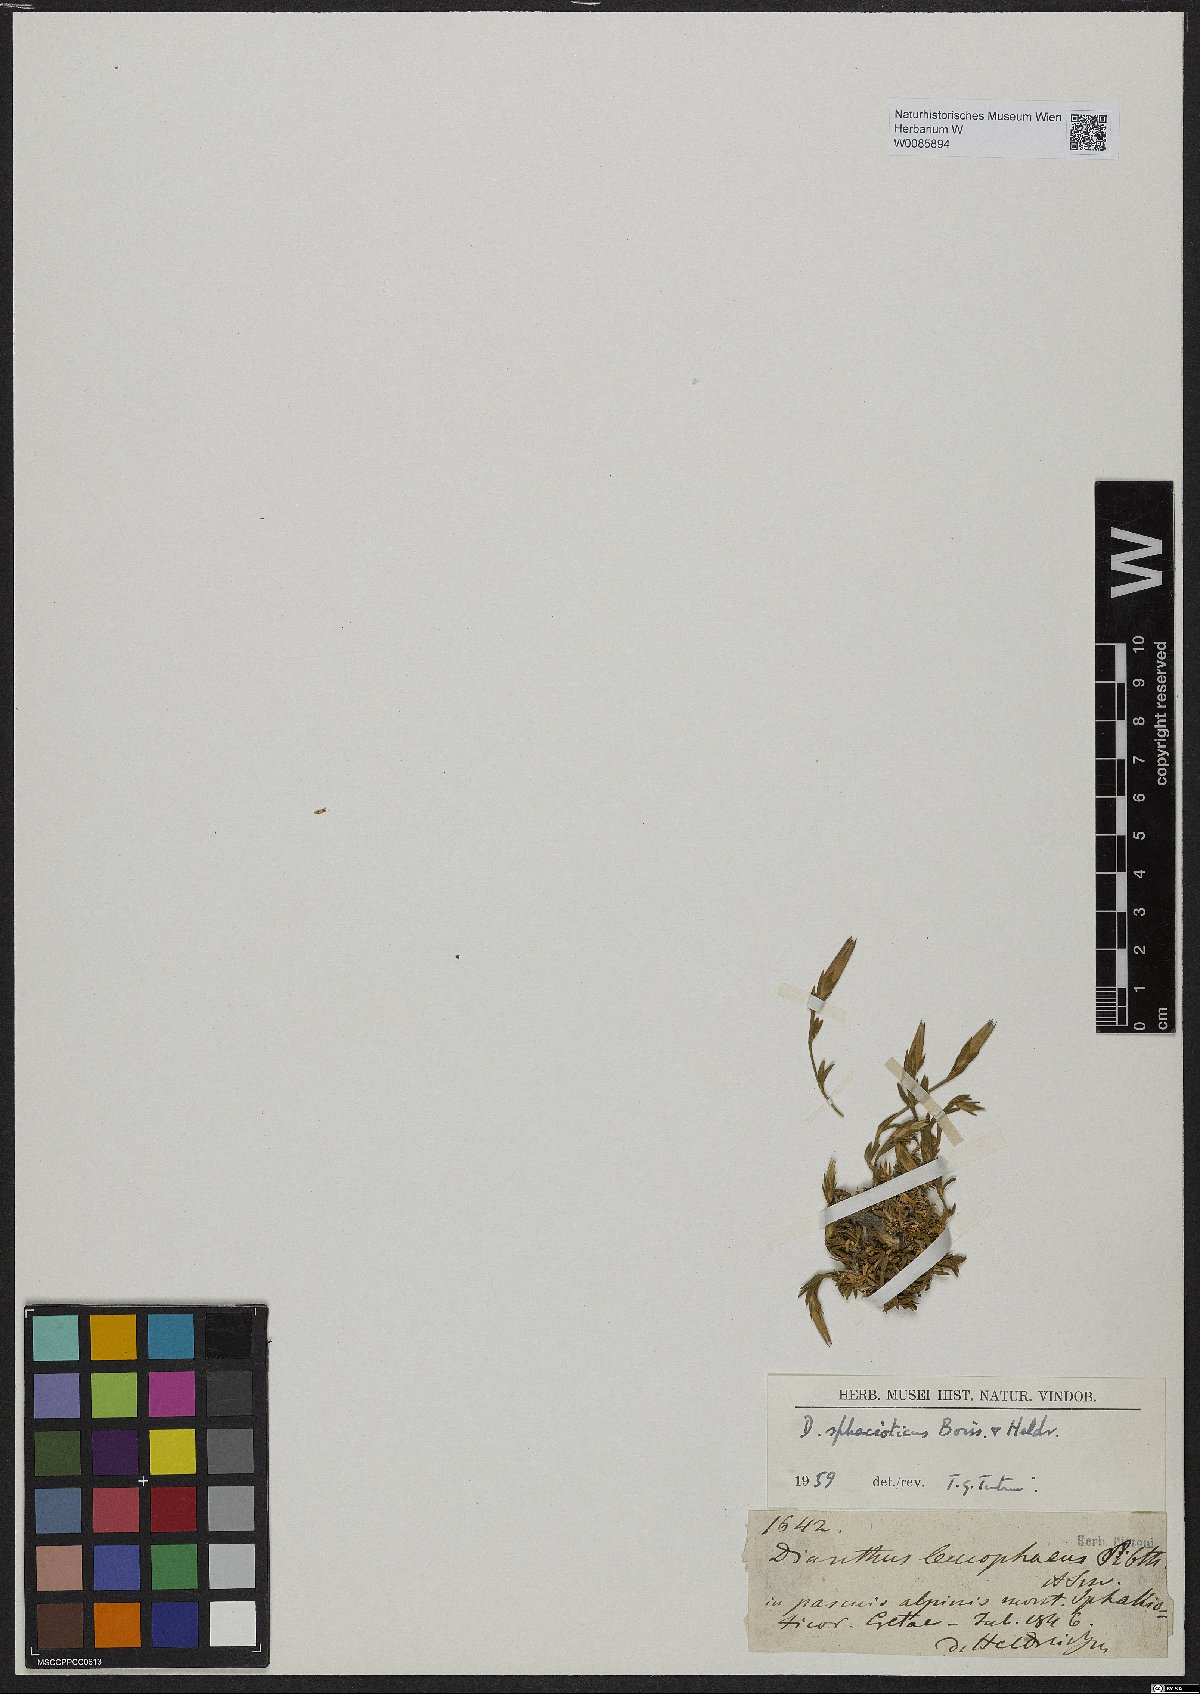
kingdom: Plantae
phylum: Tracheophyta
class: Magnoliopsida
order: Caryophyllales
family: Caryophyllaceae
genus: Dianthus
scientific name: Dianthus sphacioticus
